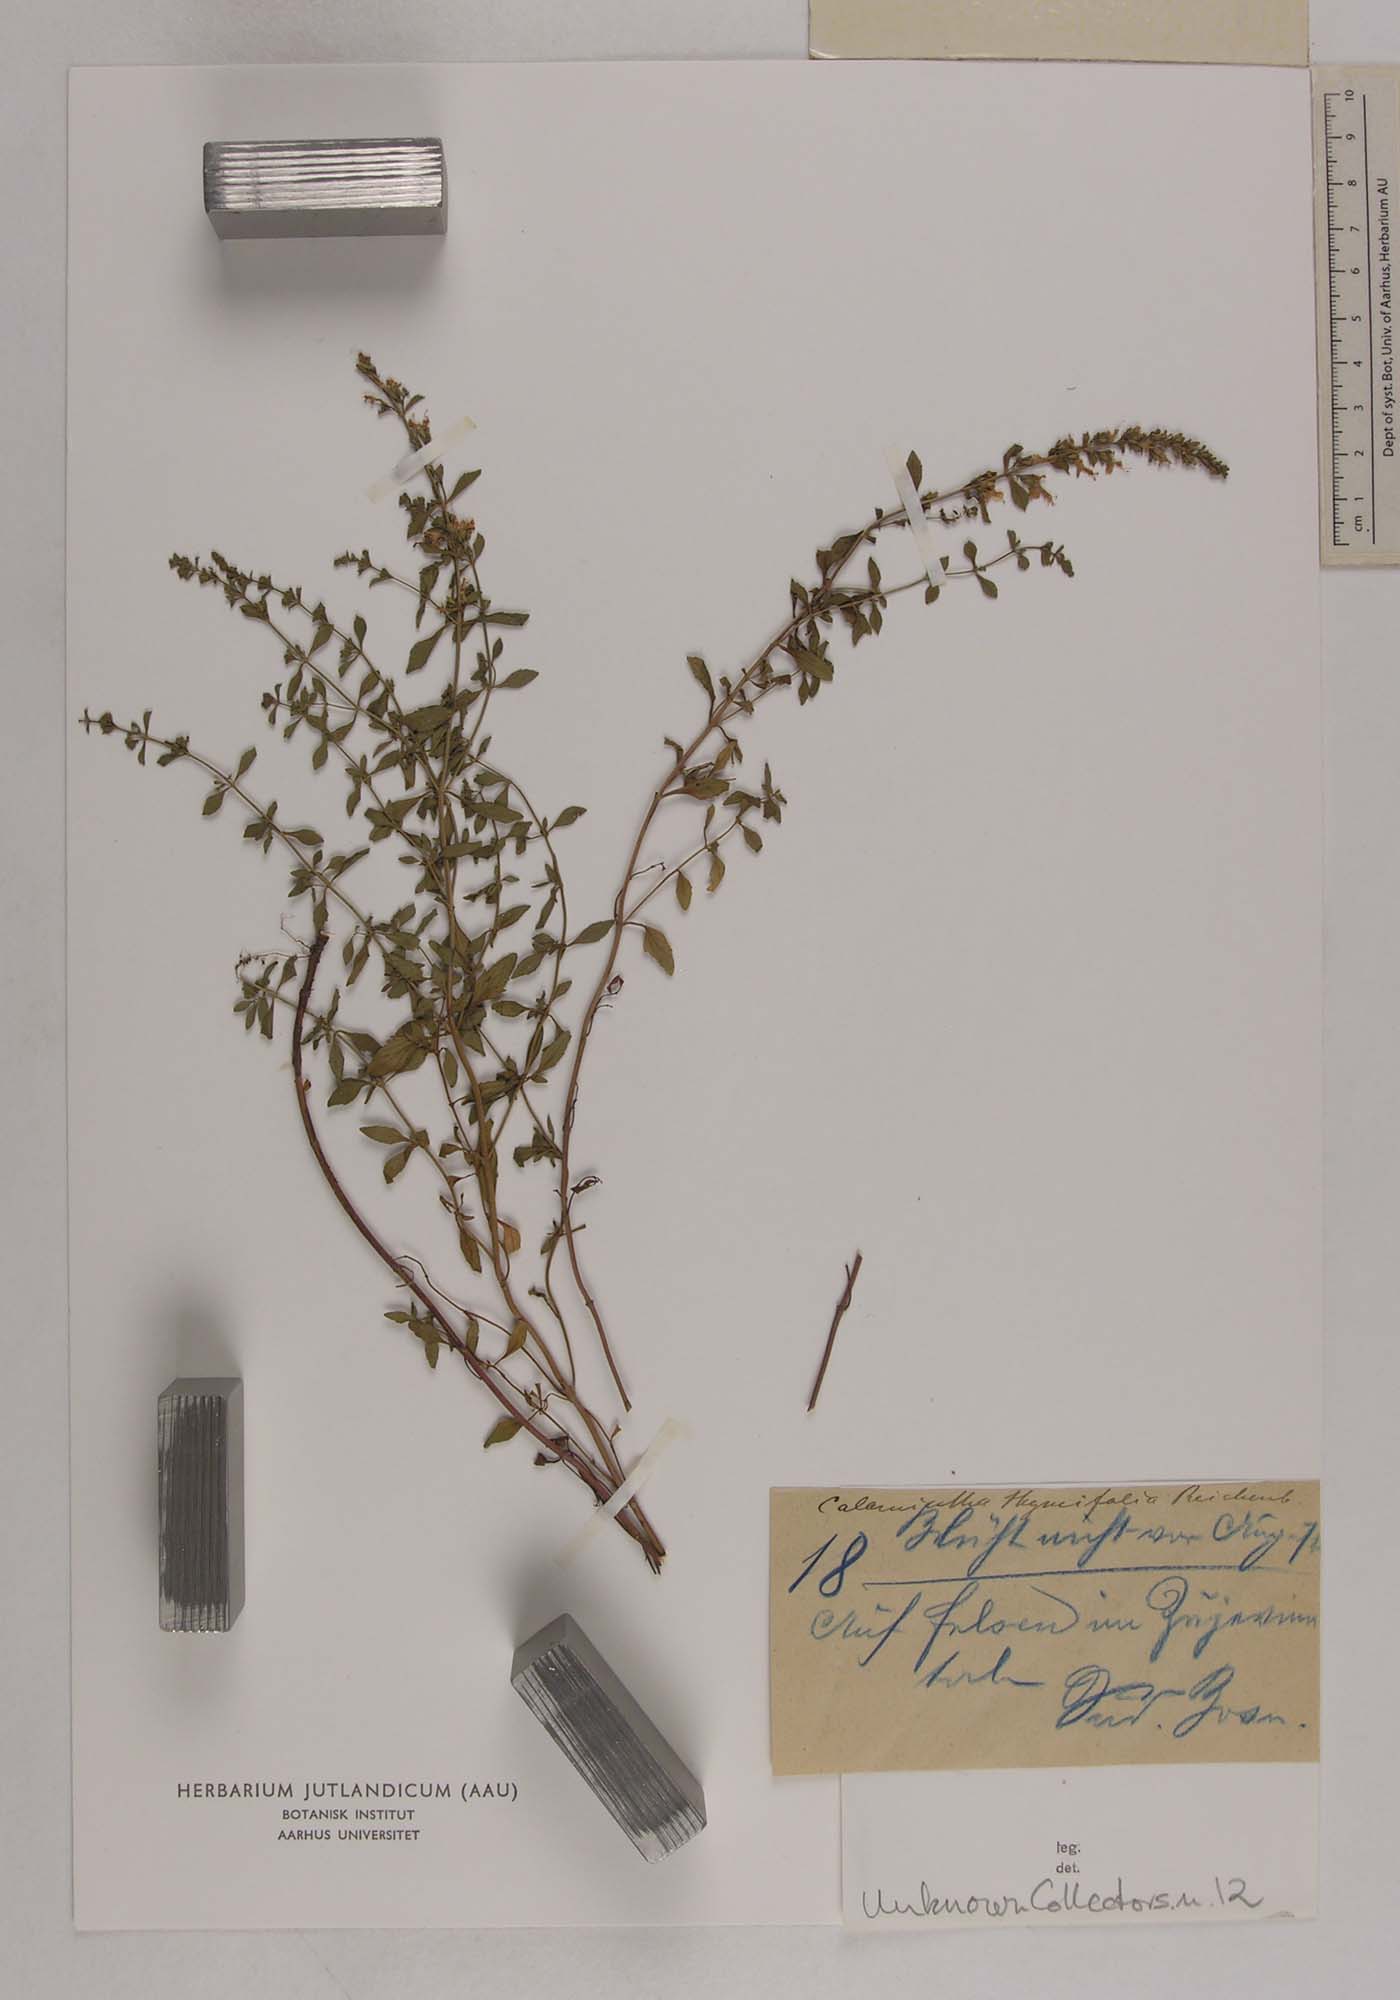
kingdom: Plantae
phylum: Tracheophyta
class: Magnoliopsida
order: Lamiales
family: Lamiaceae
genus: Clinopodium
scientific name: Clinopodium album
